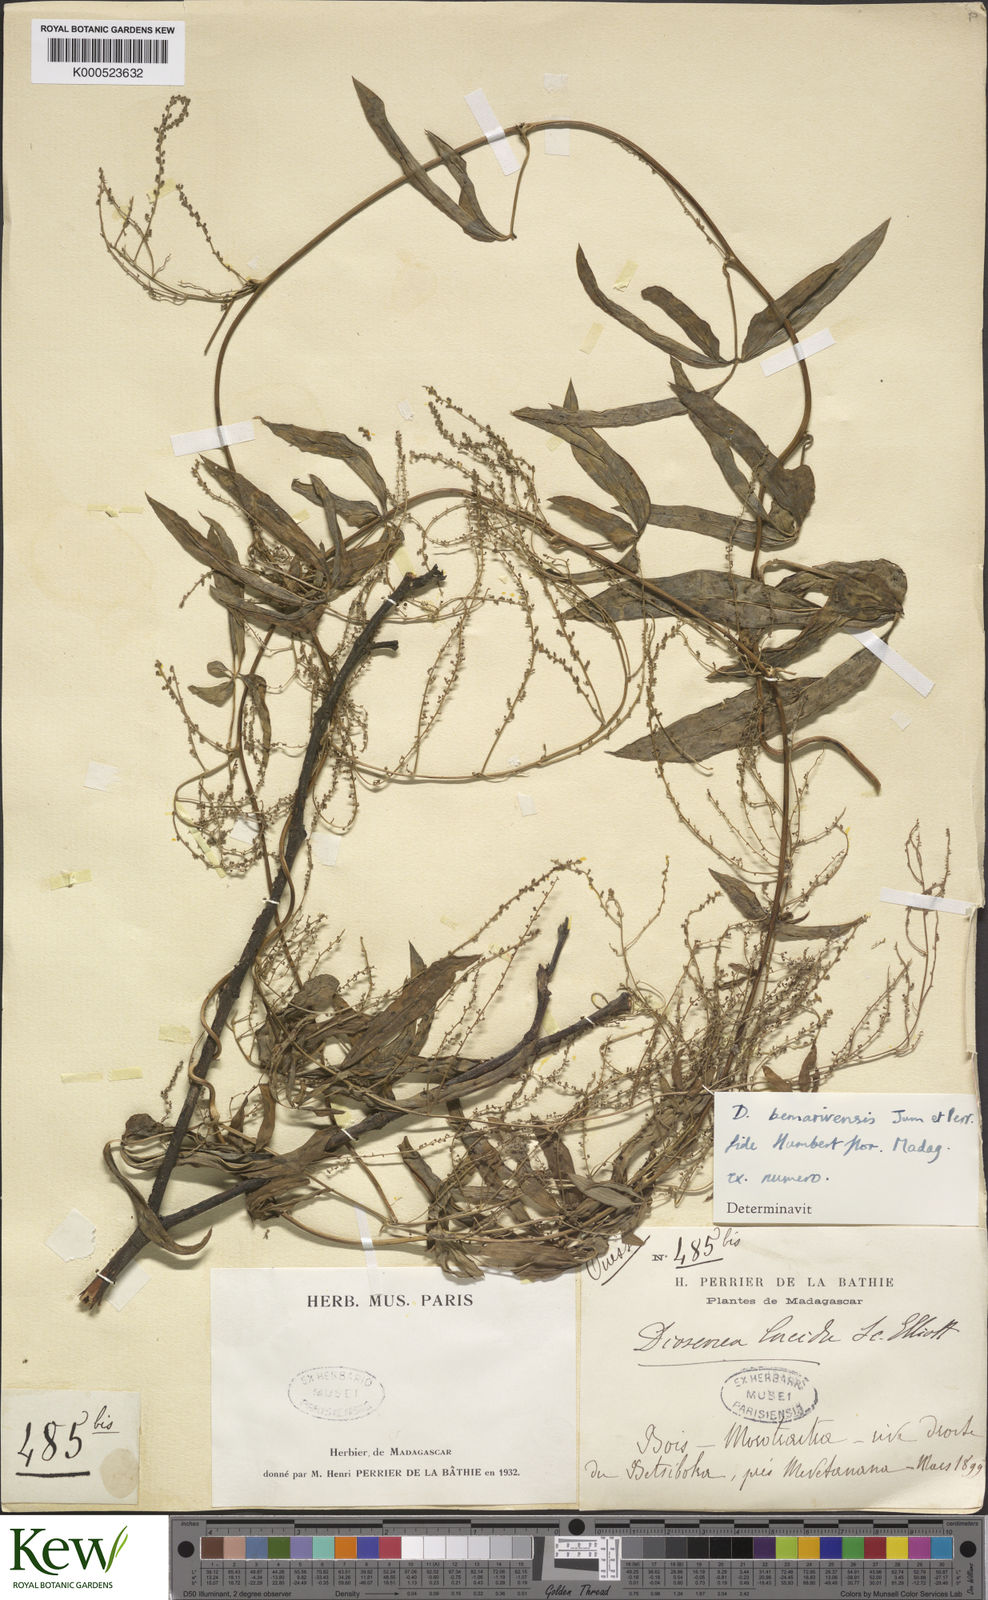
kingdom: Plantae
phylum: Tracheophyta
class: Liliopsida
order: Dioscoreales
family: Dioscoreaceae
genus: Dioscorea
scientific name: Dioscorea bemarivensis
